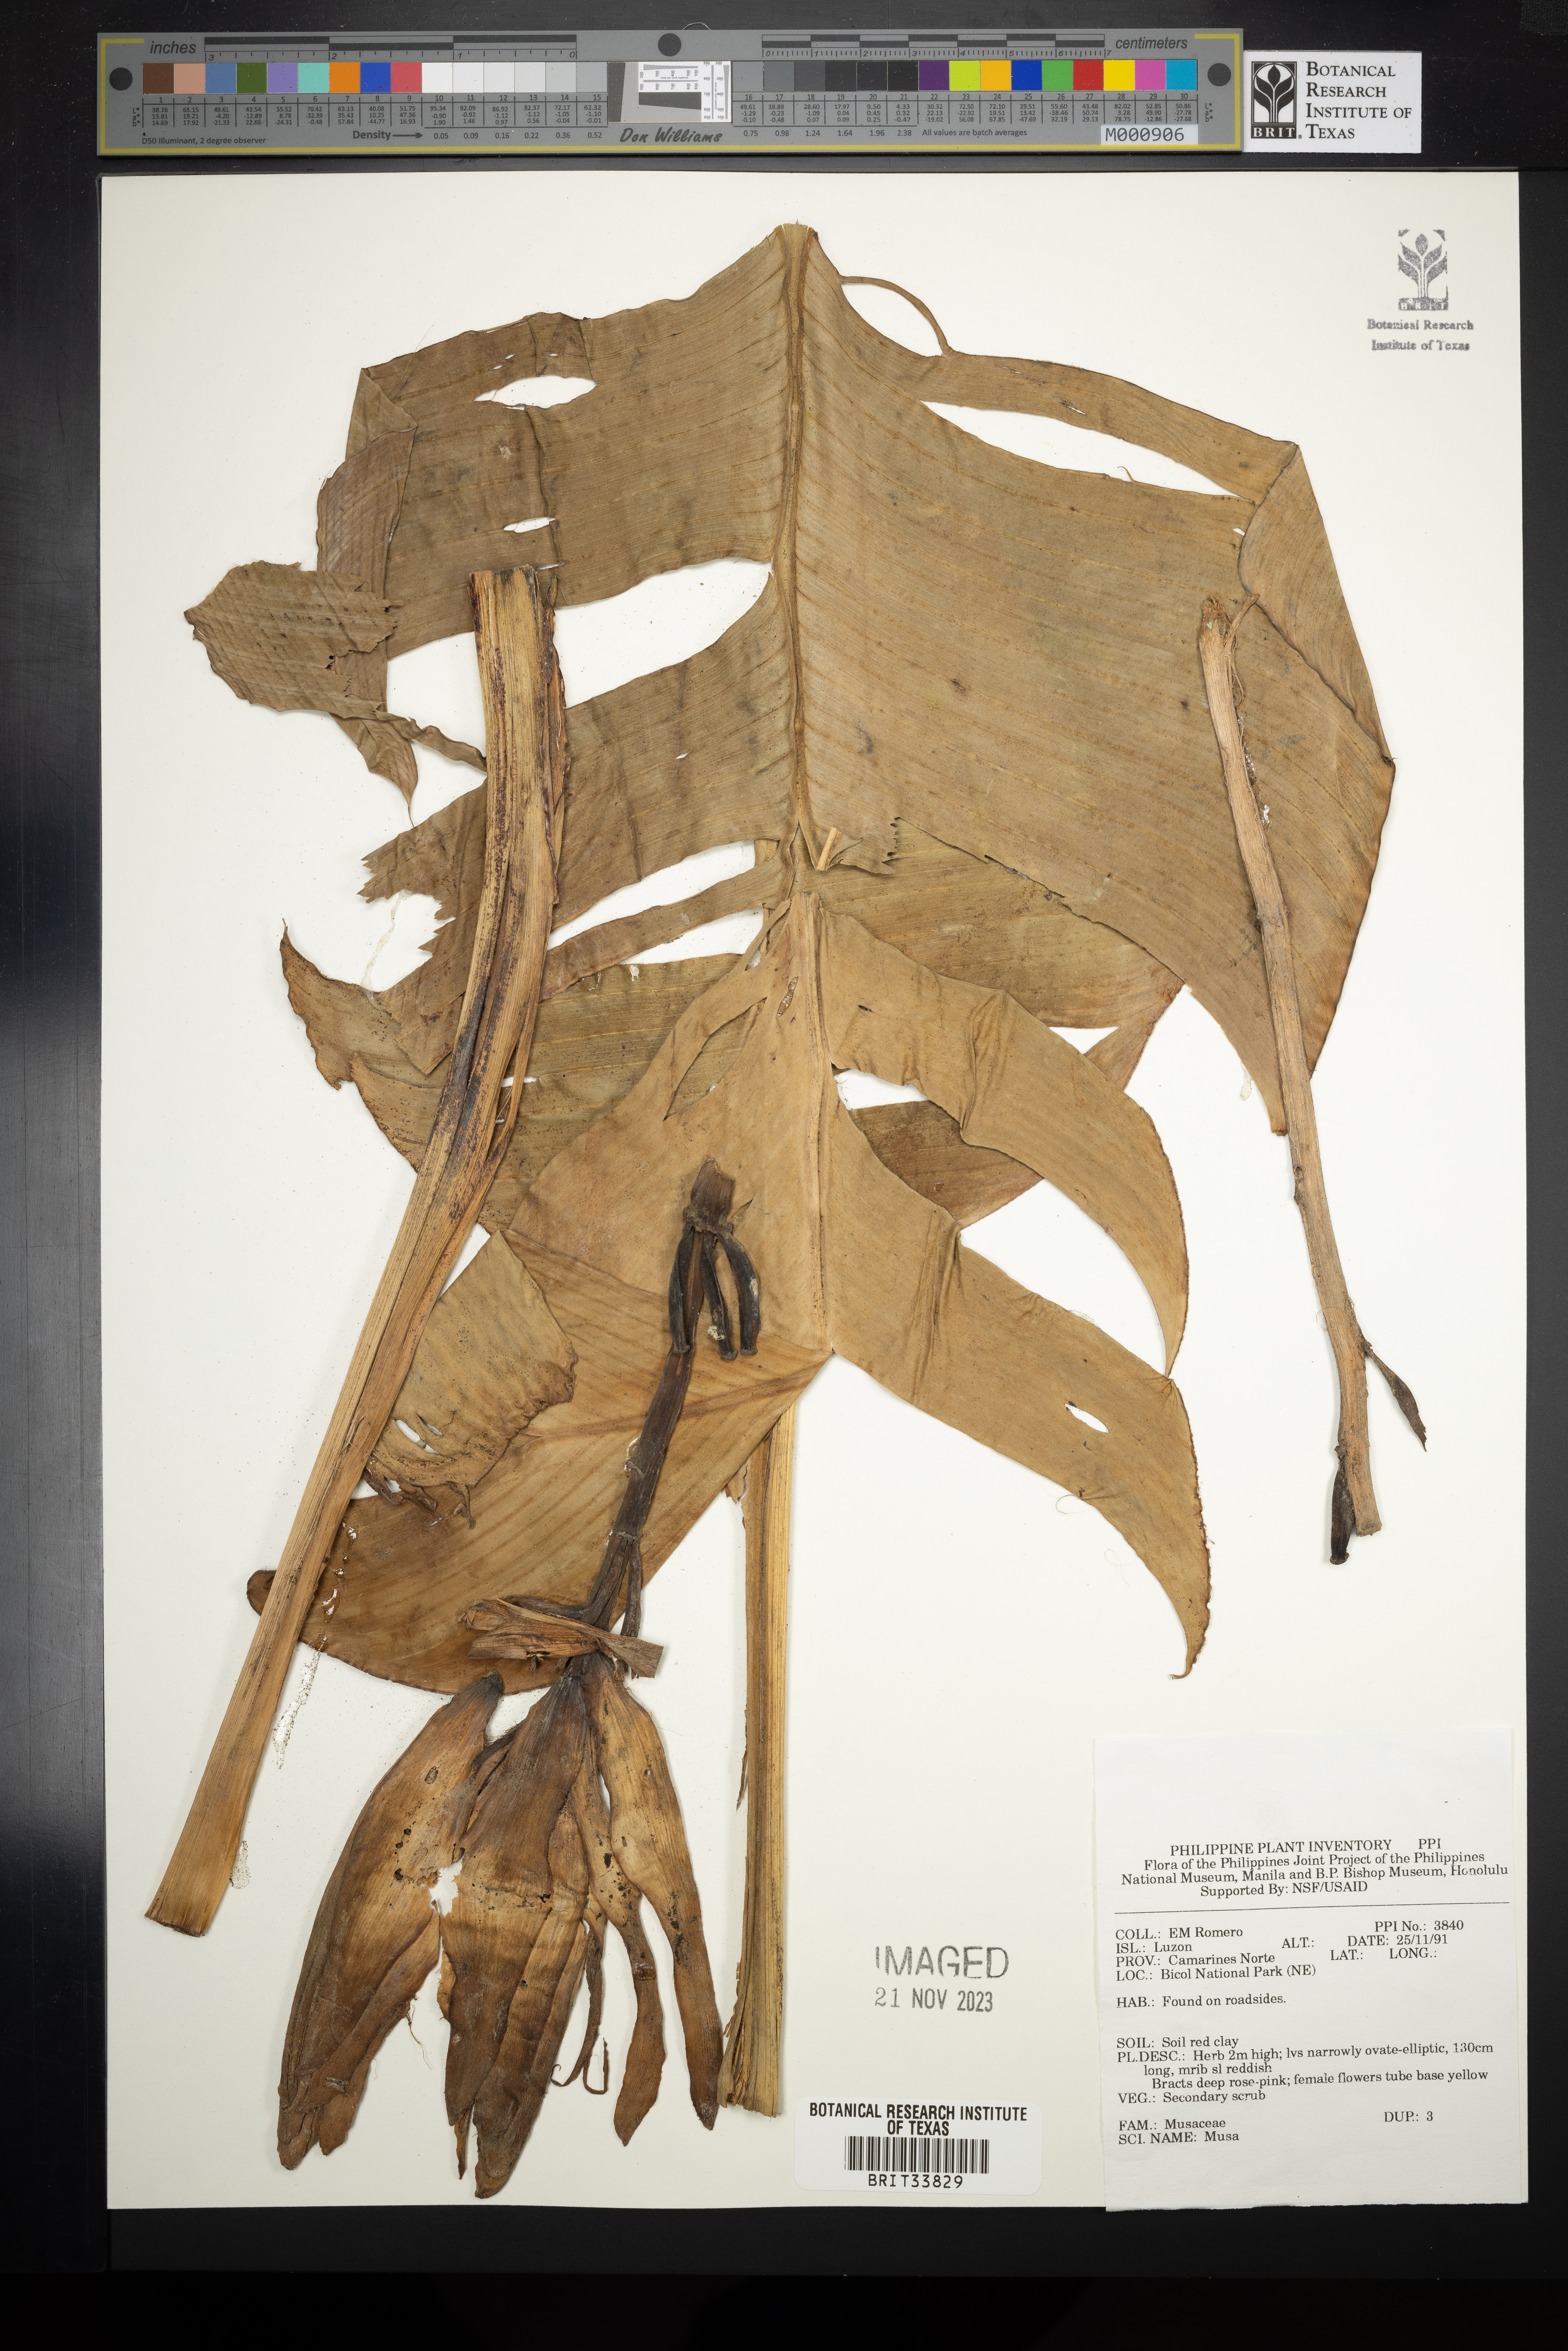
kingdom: Plantae
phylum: Tracheophyta
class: Liliopsida
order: Zingiberales
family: Musaceae
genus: Musa
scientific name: Musa
